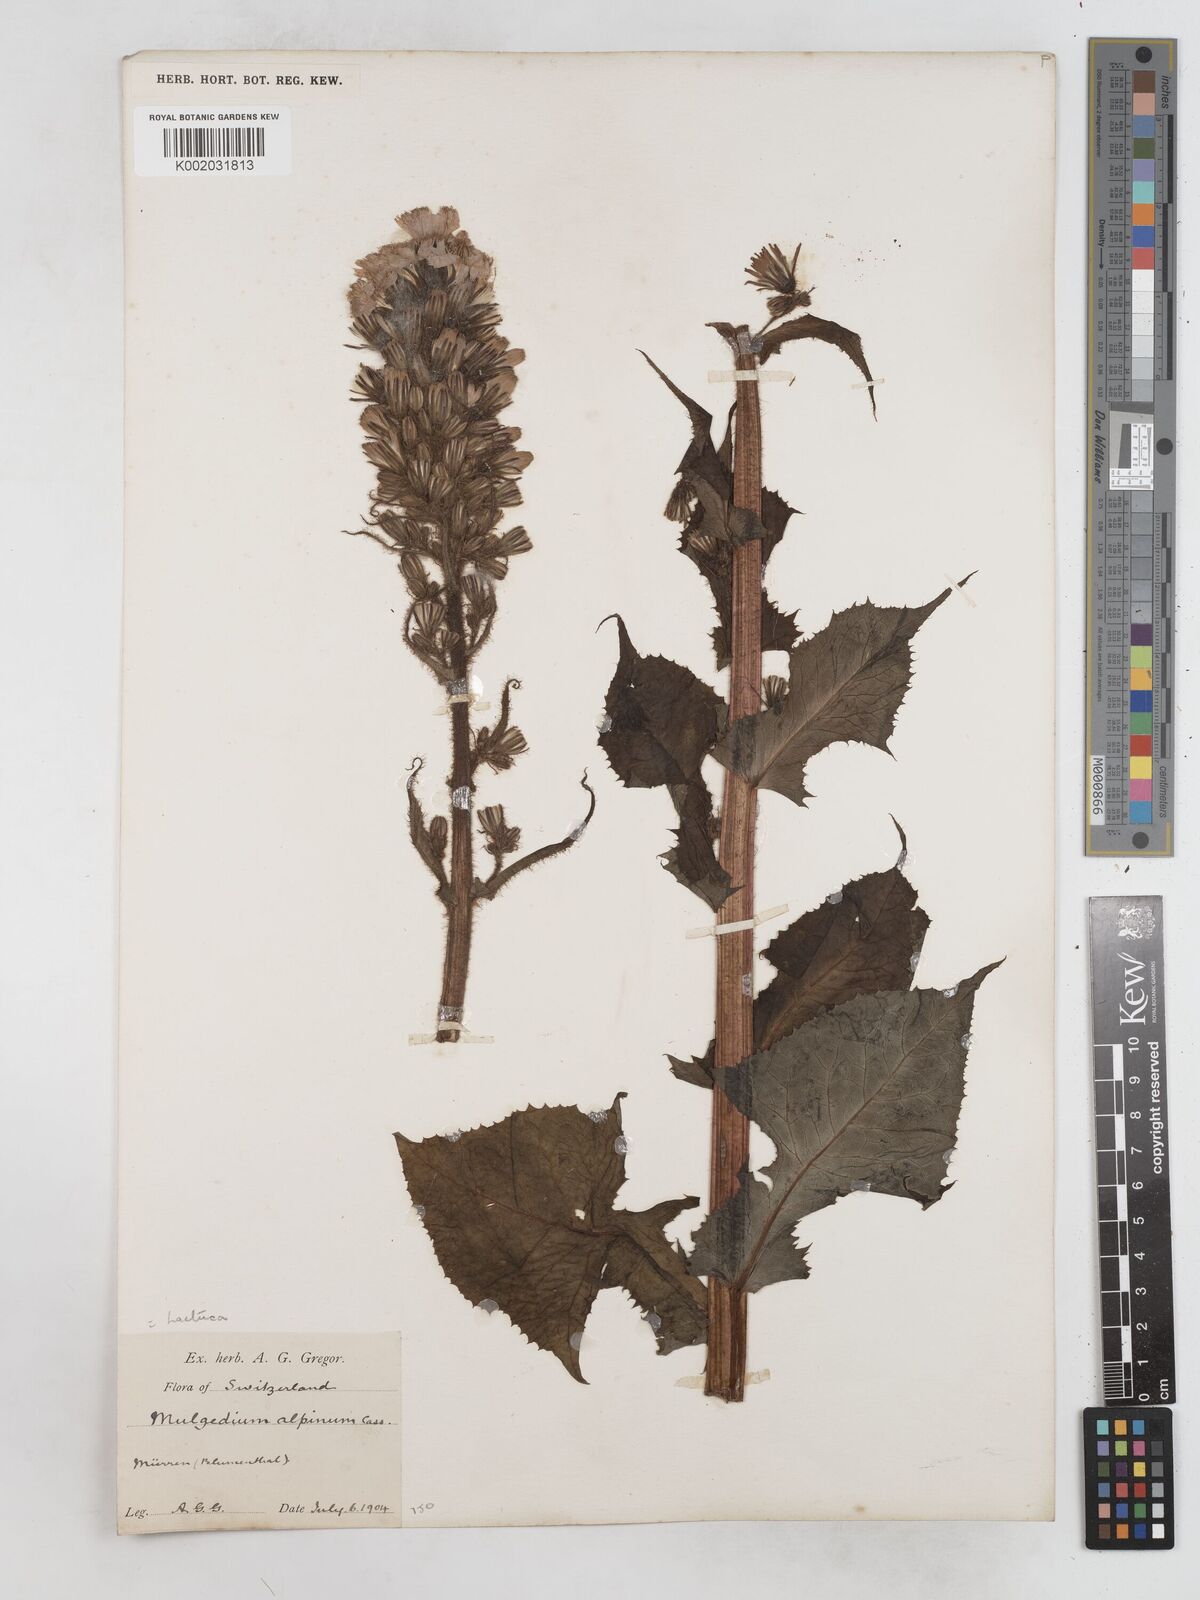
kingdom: Plantae
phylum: Tracheophyta
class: Magnoliopsida
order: Asterales
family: Asteraceae
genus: Cicerbita
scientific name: Cicerbita alpina
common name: Alpine blue-sow-thistle
